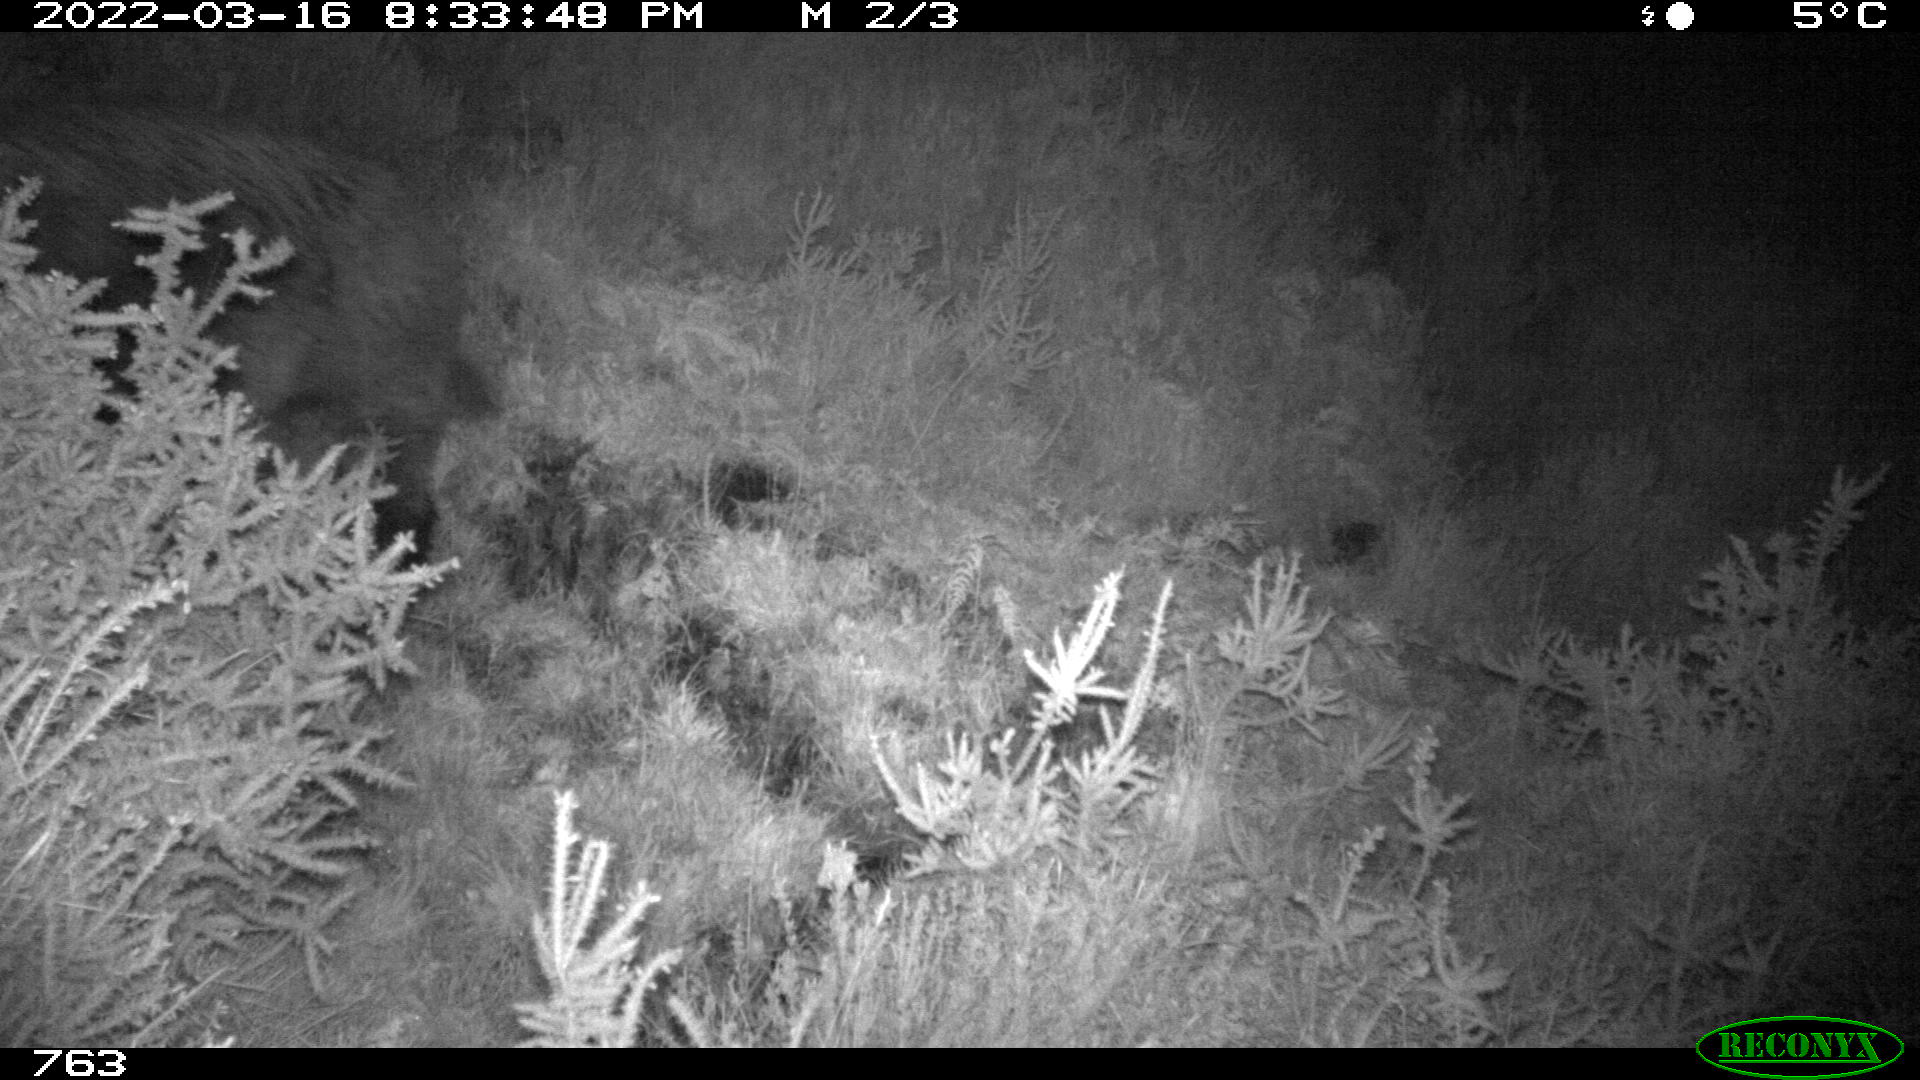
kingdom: Animalia
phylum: Chordata
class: Mammalia
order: Artiodactyla
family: Suidae
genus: Sus
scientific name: Sus scrofa
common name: Wild boar
